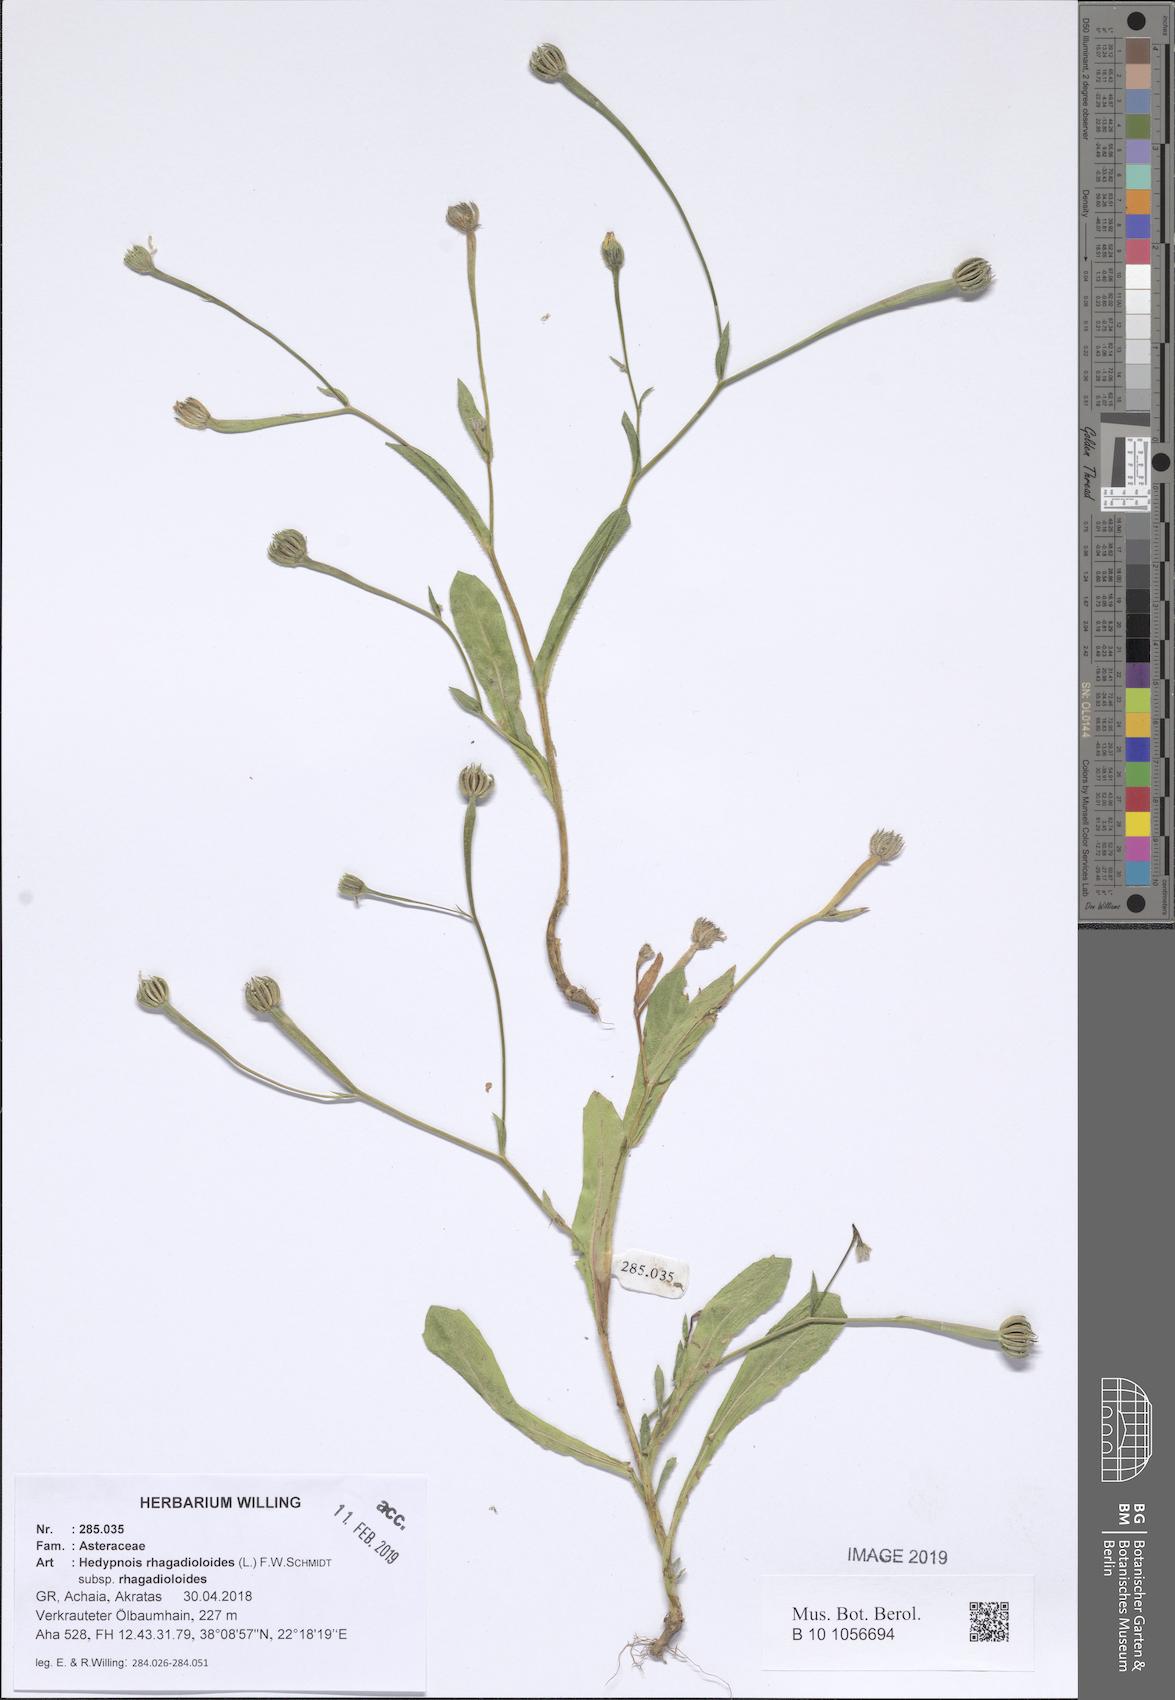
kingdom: Plantae
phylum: Tracheophyta
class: Magnoliopsida
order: Asterales
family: Asteraceae
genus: Hedypnois
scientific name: Hedypnois rhagadioloides
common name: Cretan weed
